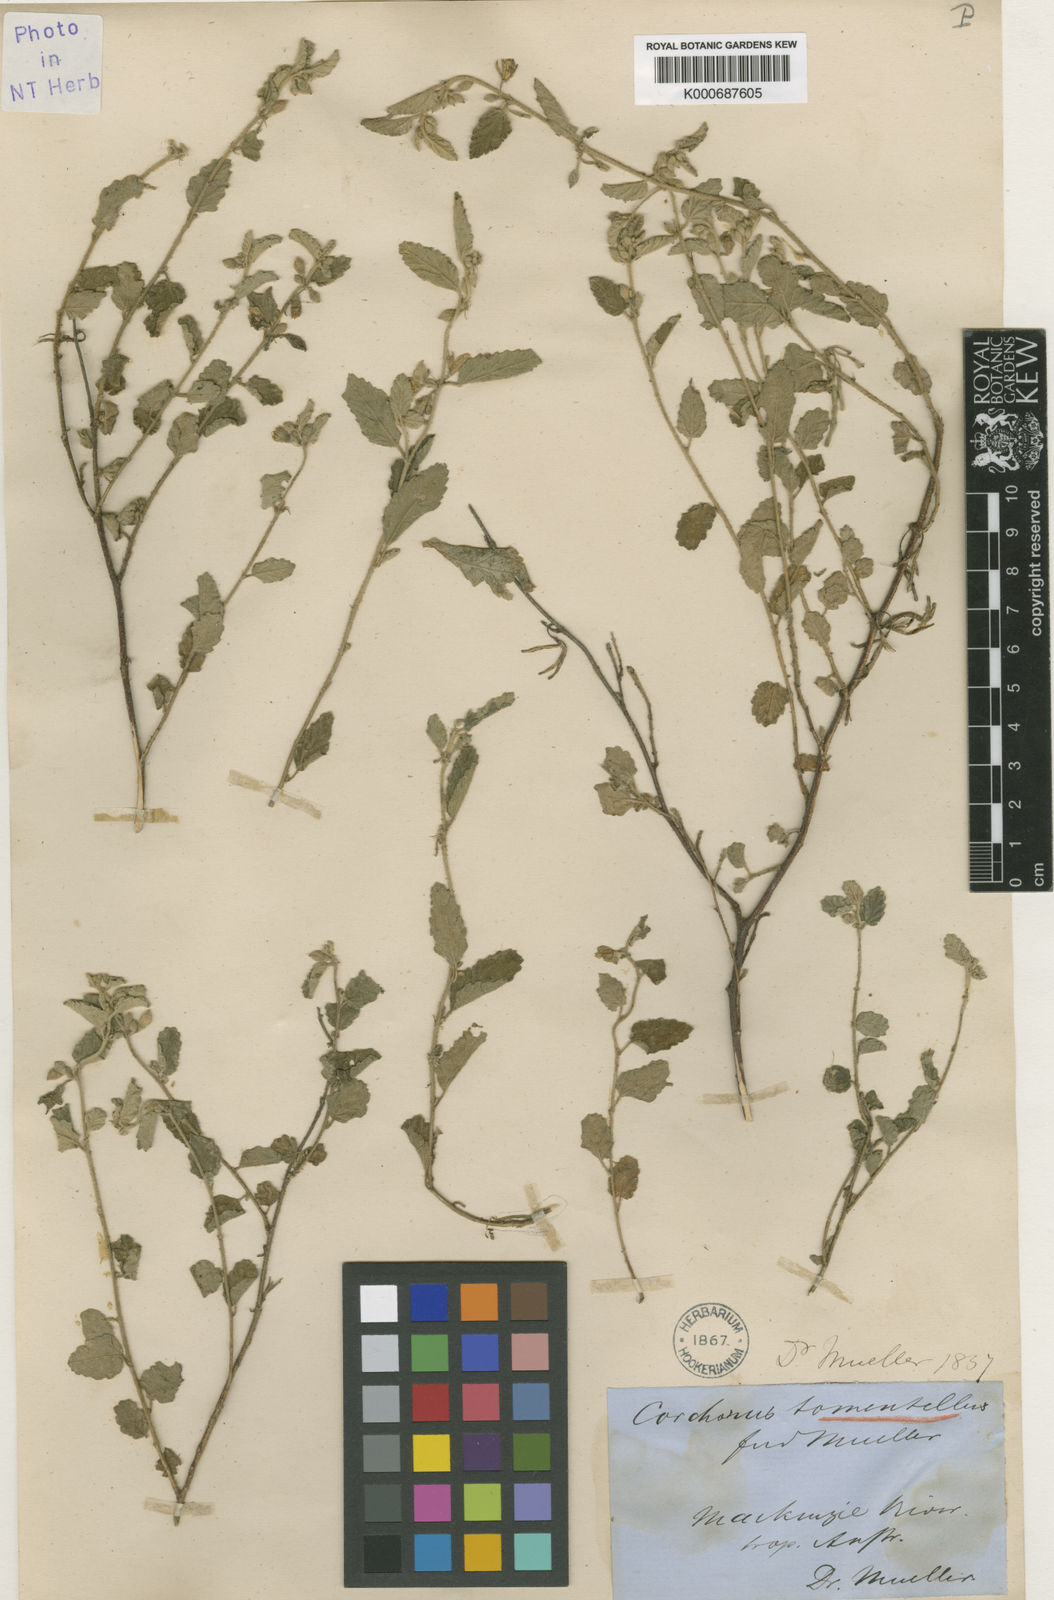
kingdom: Plantae
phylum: Tracheophyta
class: Magnoliopsida
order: Malvales
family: Malvaceae
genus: Corchorus
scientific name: Corchorus
